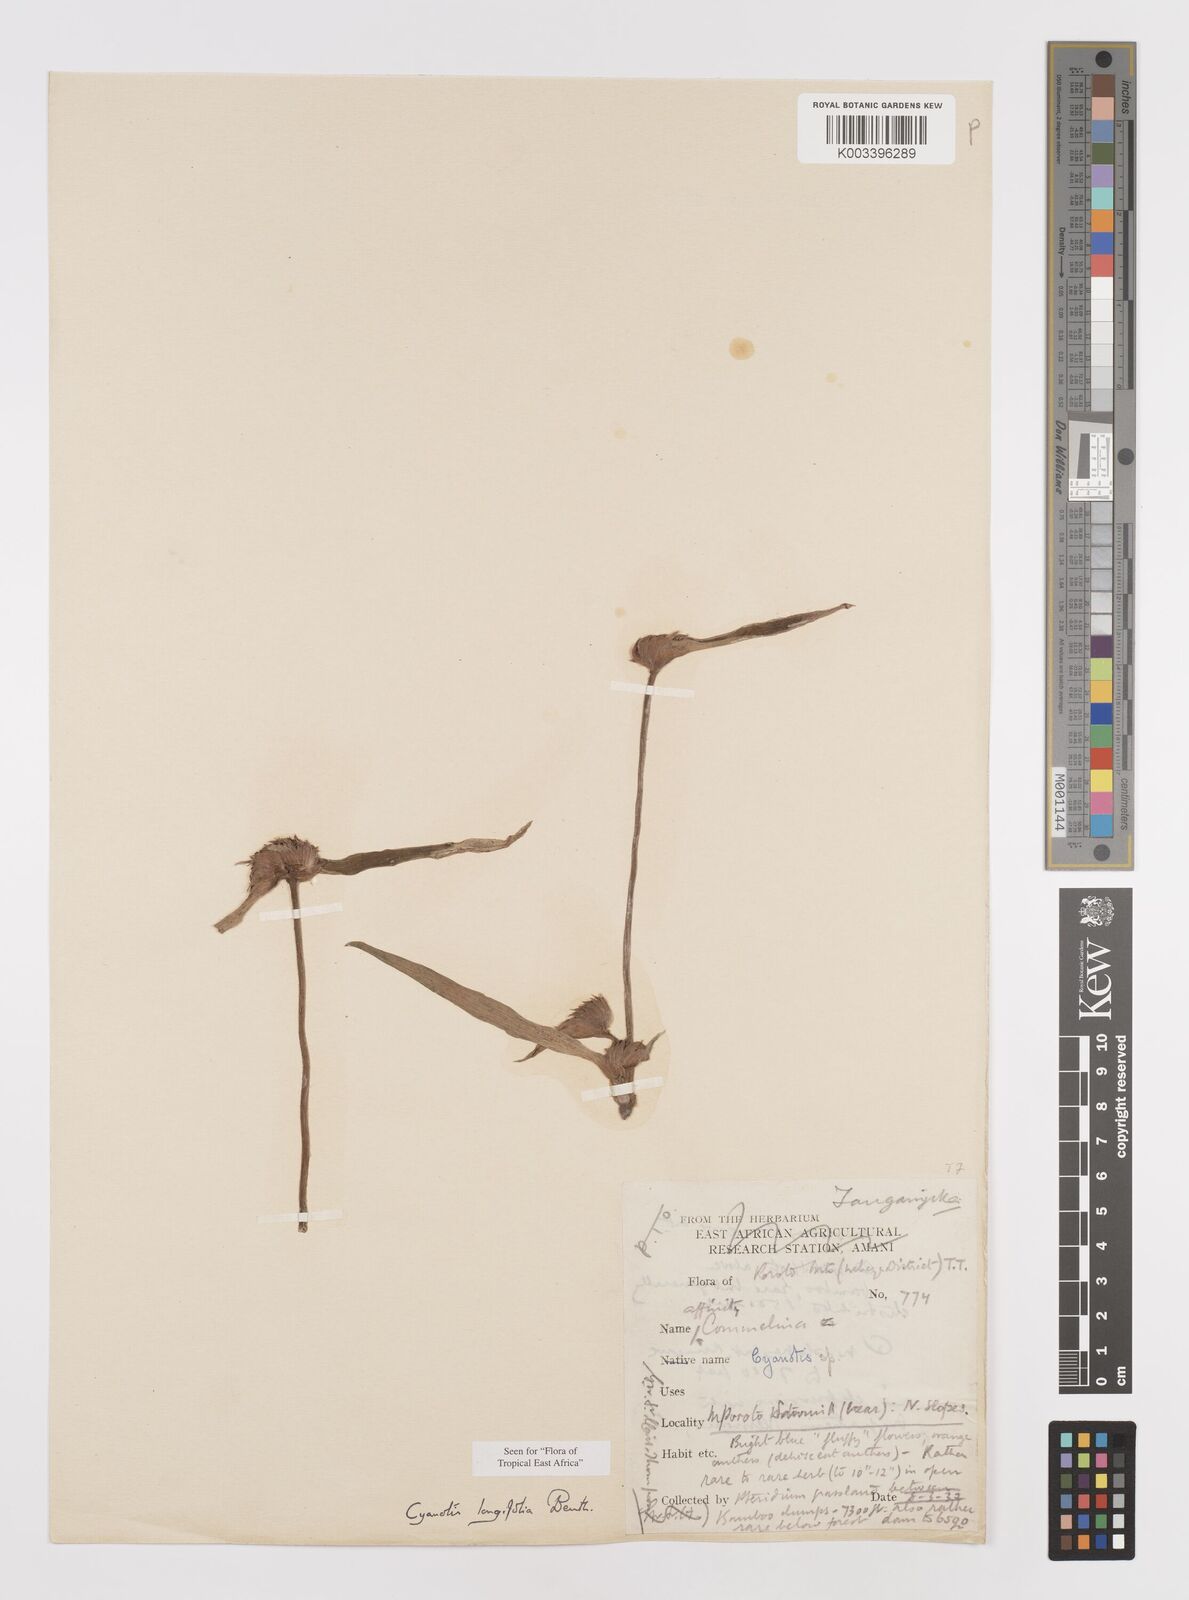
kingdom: Plantae
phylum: Tracheophyta
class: Liliopsida
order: Commelinales
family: Commelinaceae
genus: Cyanotis
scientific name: Cyanotis longifolia
